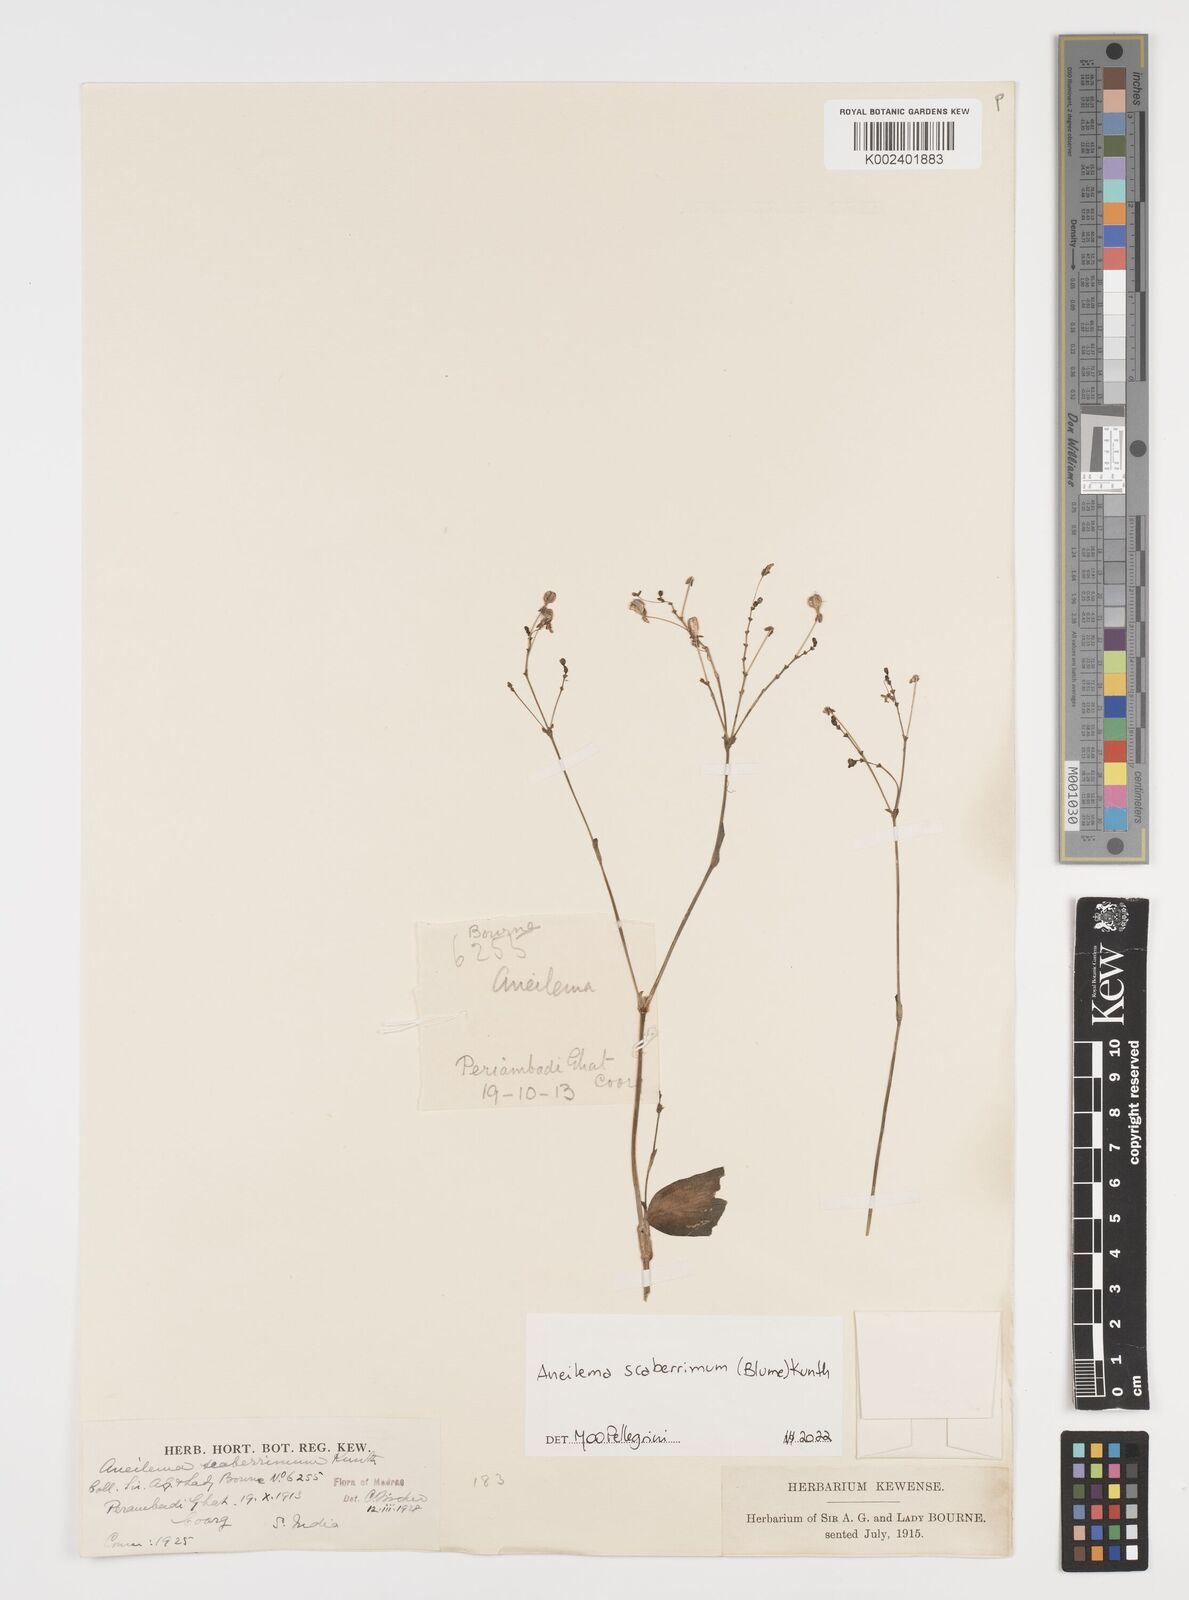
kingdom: Plantae
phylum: Tracheophyta
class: Liliopsida
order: Commelinales
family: Commelinaceae
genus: Rhopalephora
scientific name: Rhopalephora scaberrima
